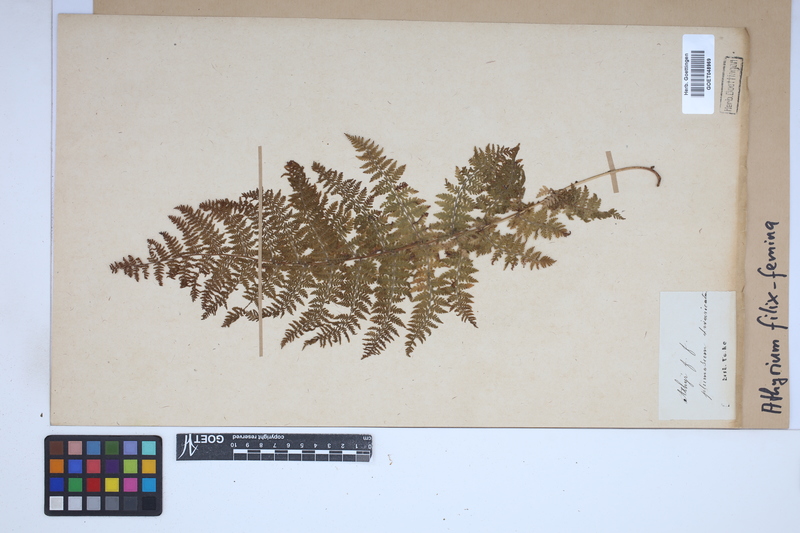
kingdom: Plantae
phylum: Tracheophyta
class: Polypodiopsida
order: Polypodiales
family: Athyriaceae
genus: Athyrium
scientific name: Athyrium filix-femina
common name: Lady fern
